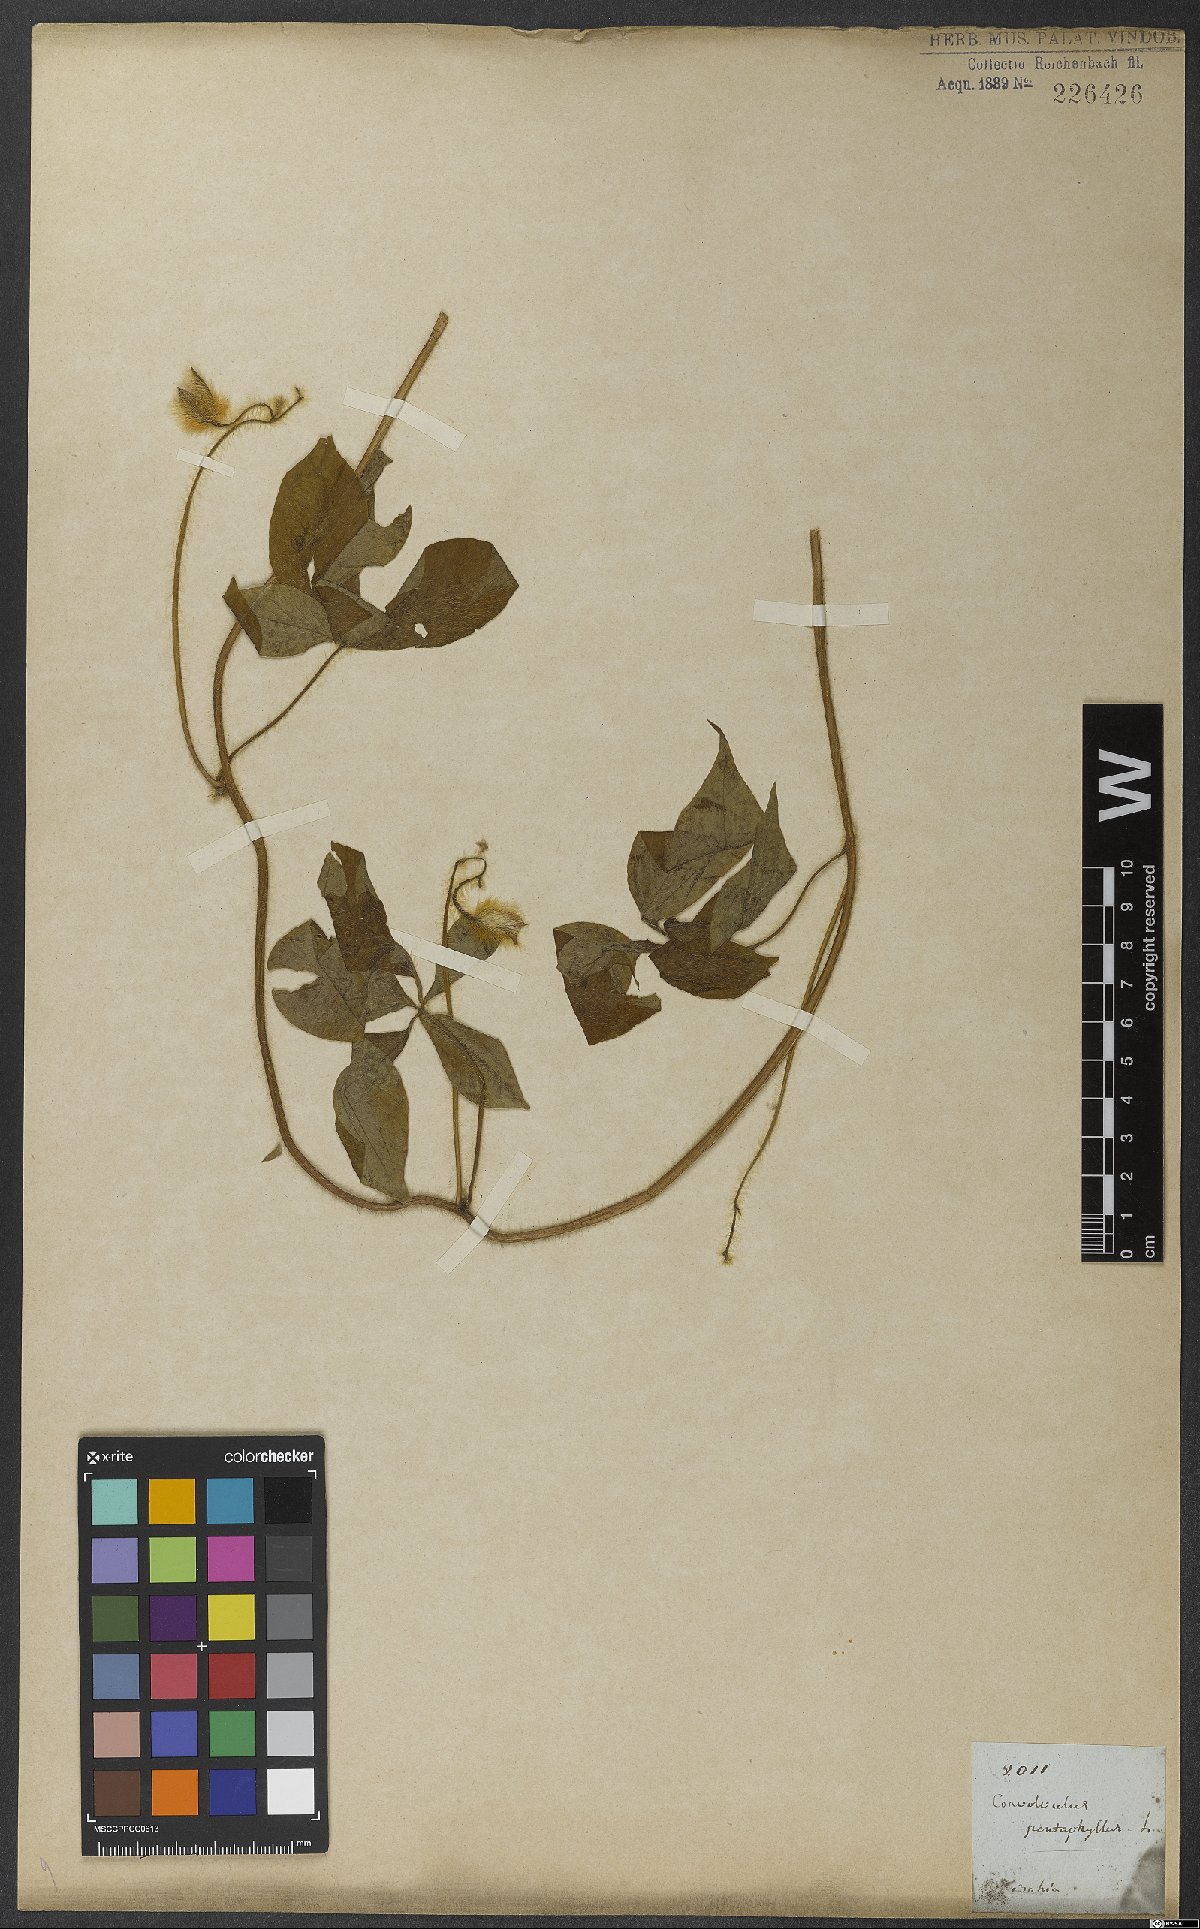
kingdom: Plantae
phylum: Tracheophyta
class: Magnoliopsida
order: Solanales
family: Convolvulaceae
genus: Distimake
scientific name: Distimake aegyptius
